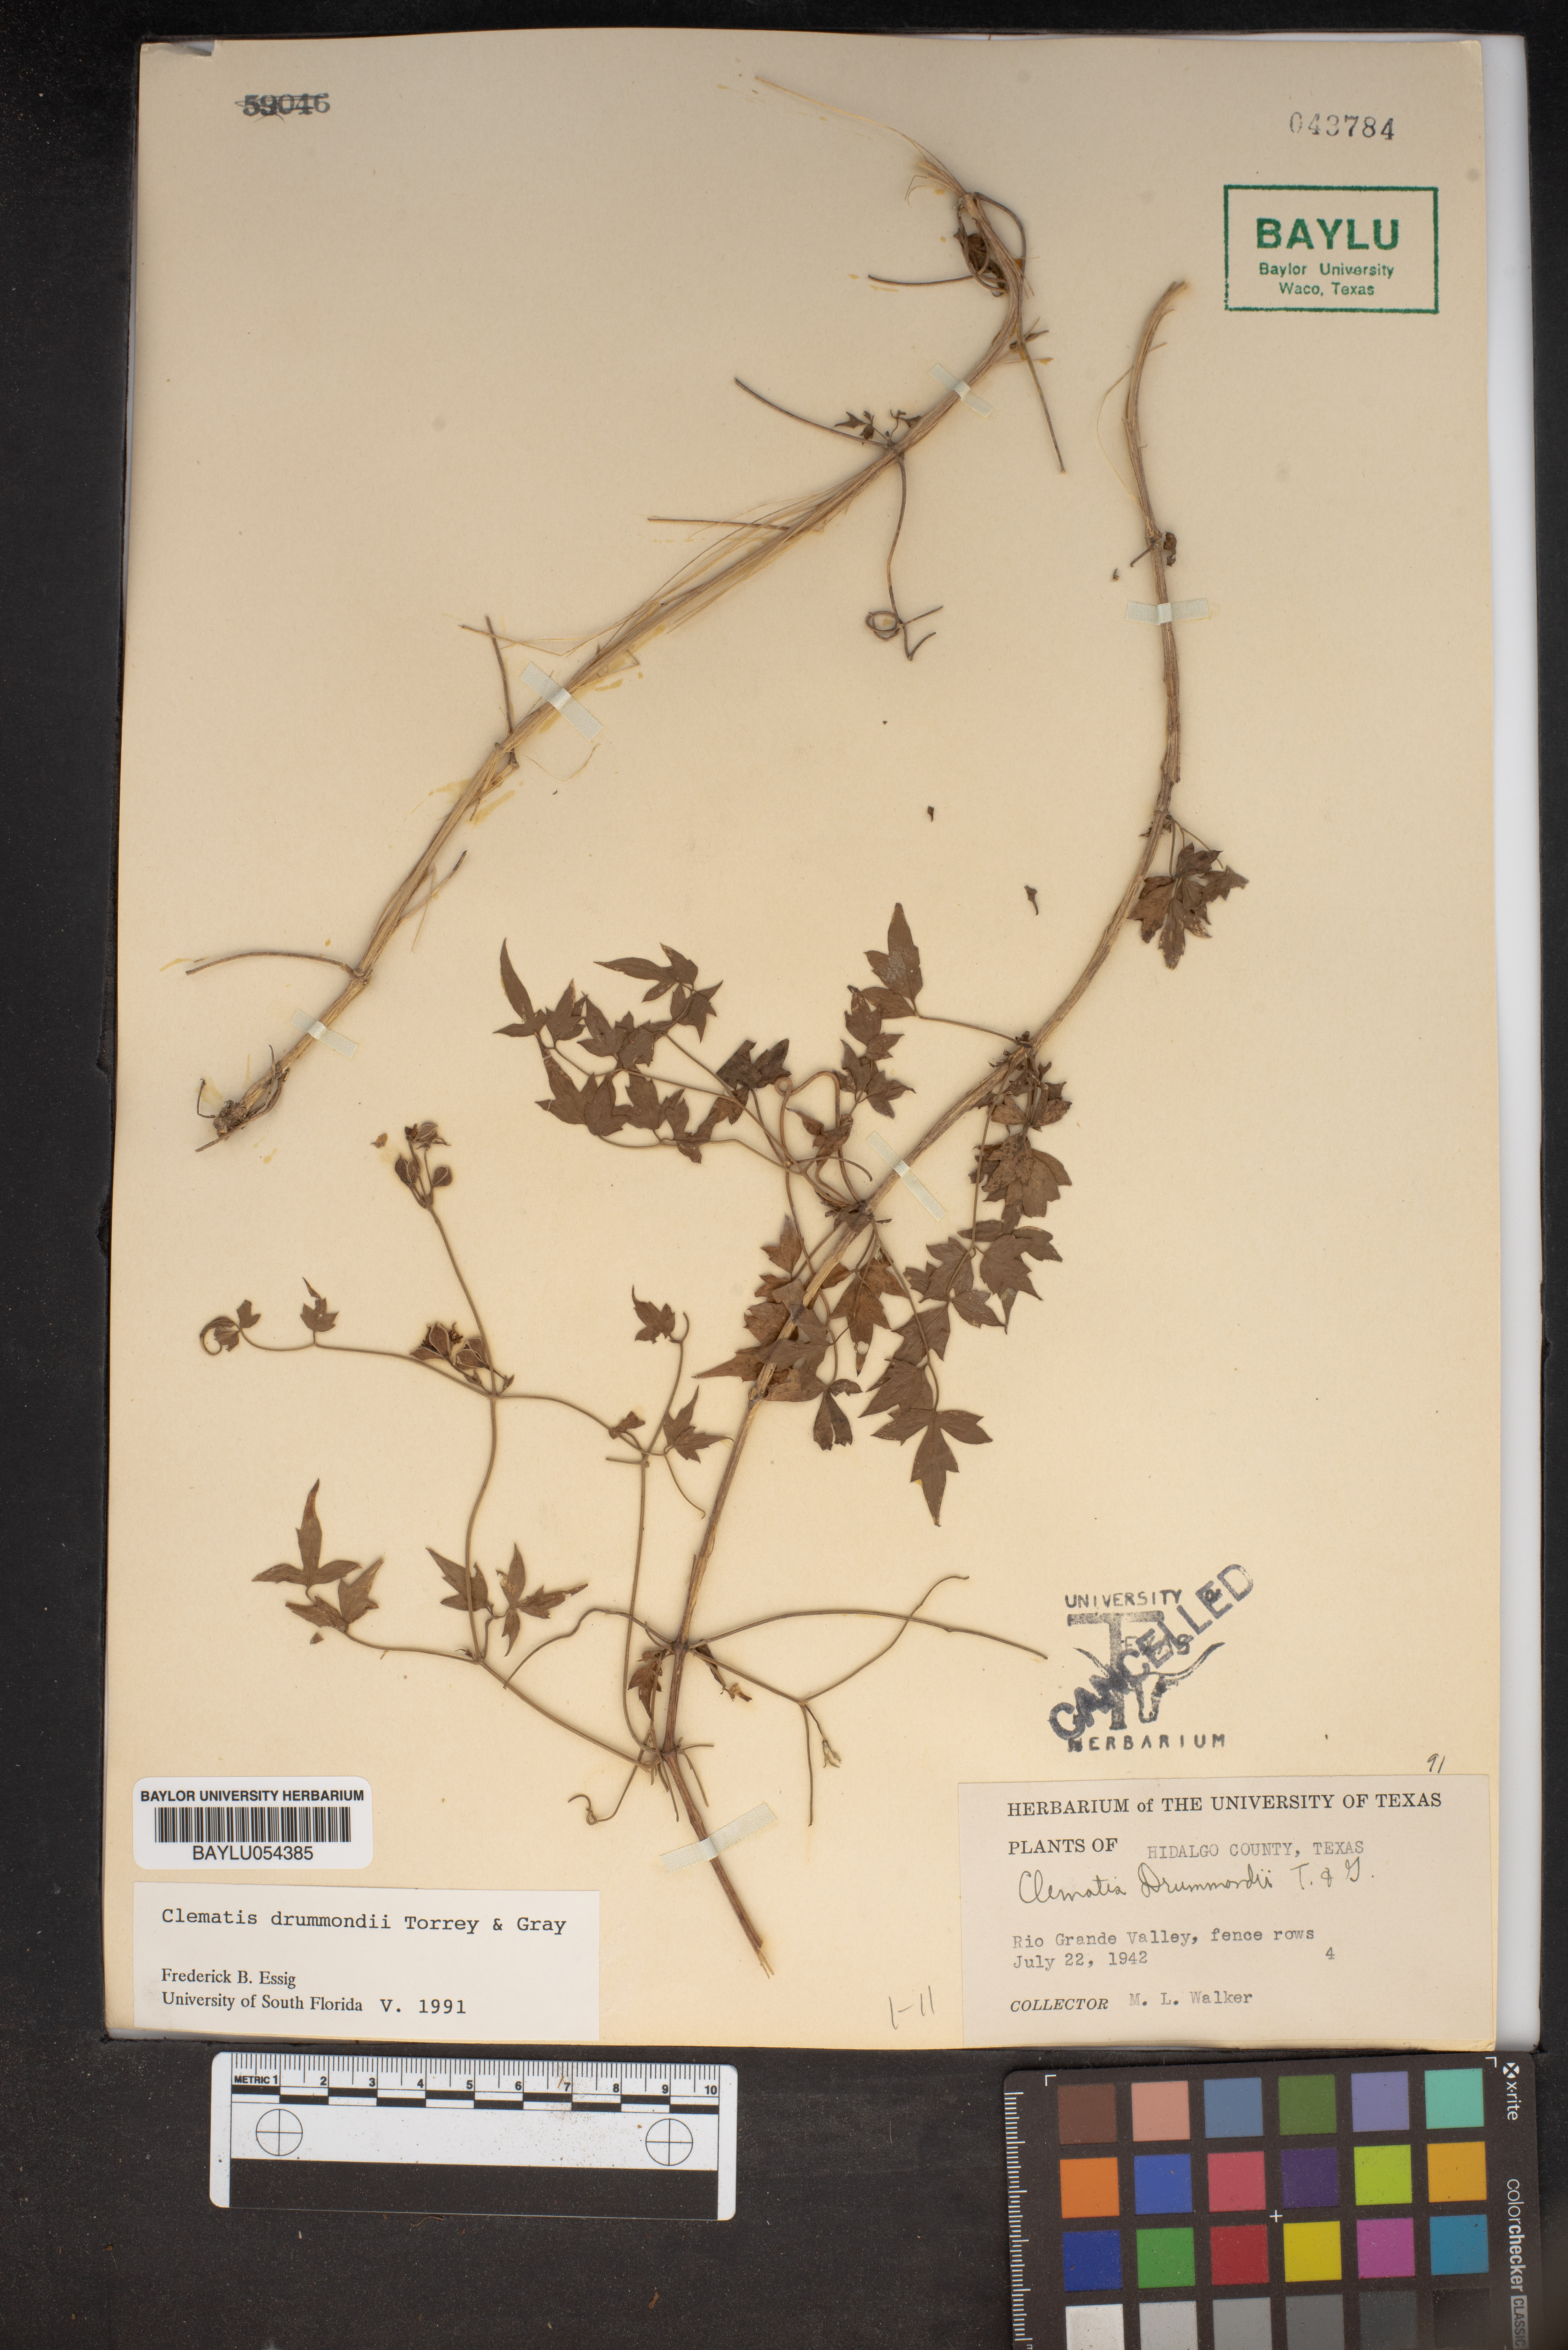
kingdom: Plantae
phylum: Tracheophyta
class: Magnoliopsida
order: Ranunculales
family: Ranunculaceae
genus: Clematis
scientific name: Clematis drummondii
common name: Texas virgin's bower
